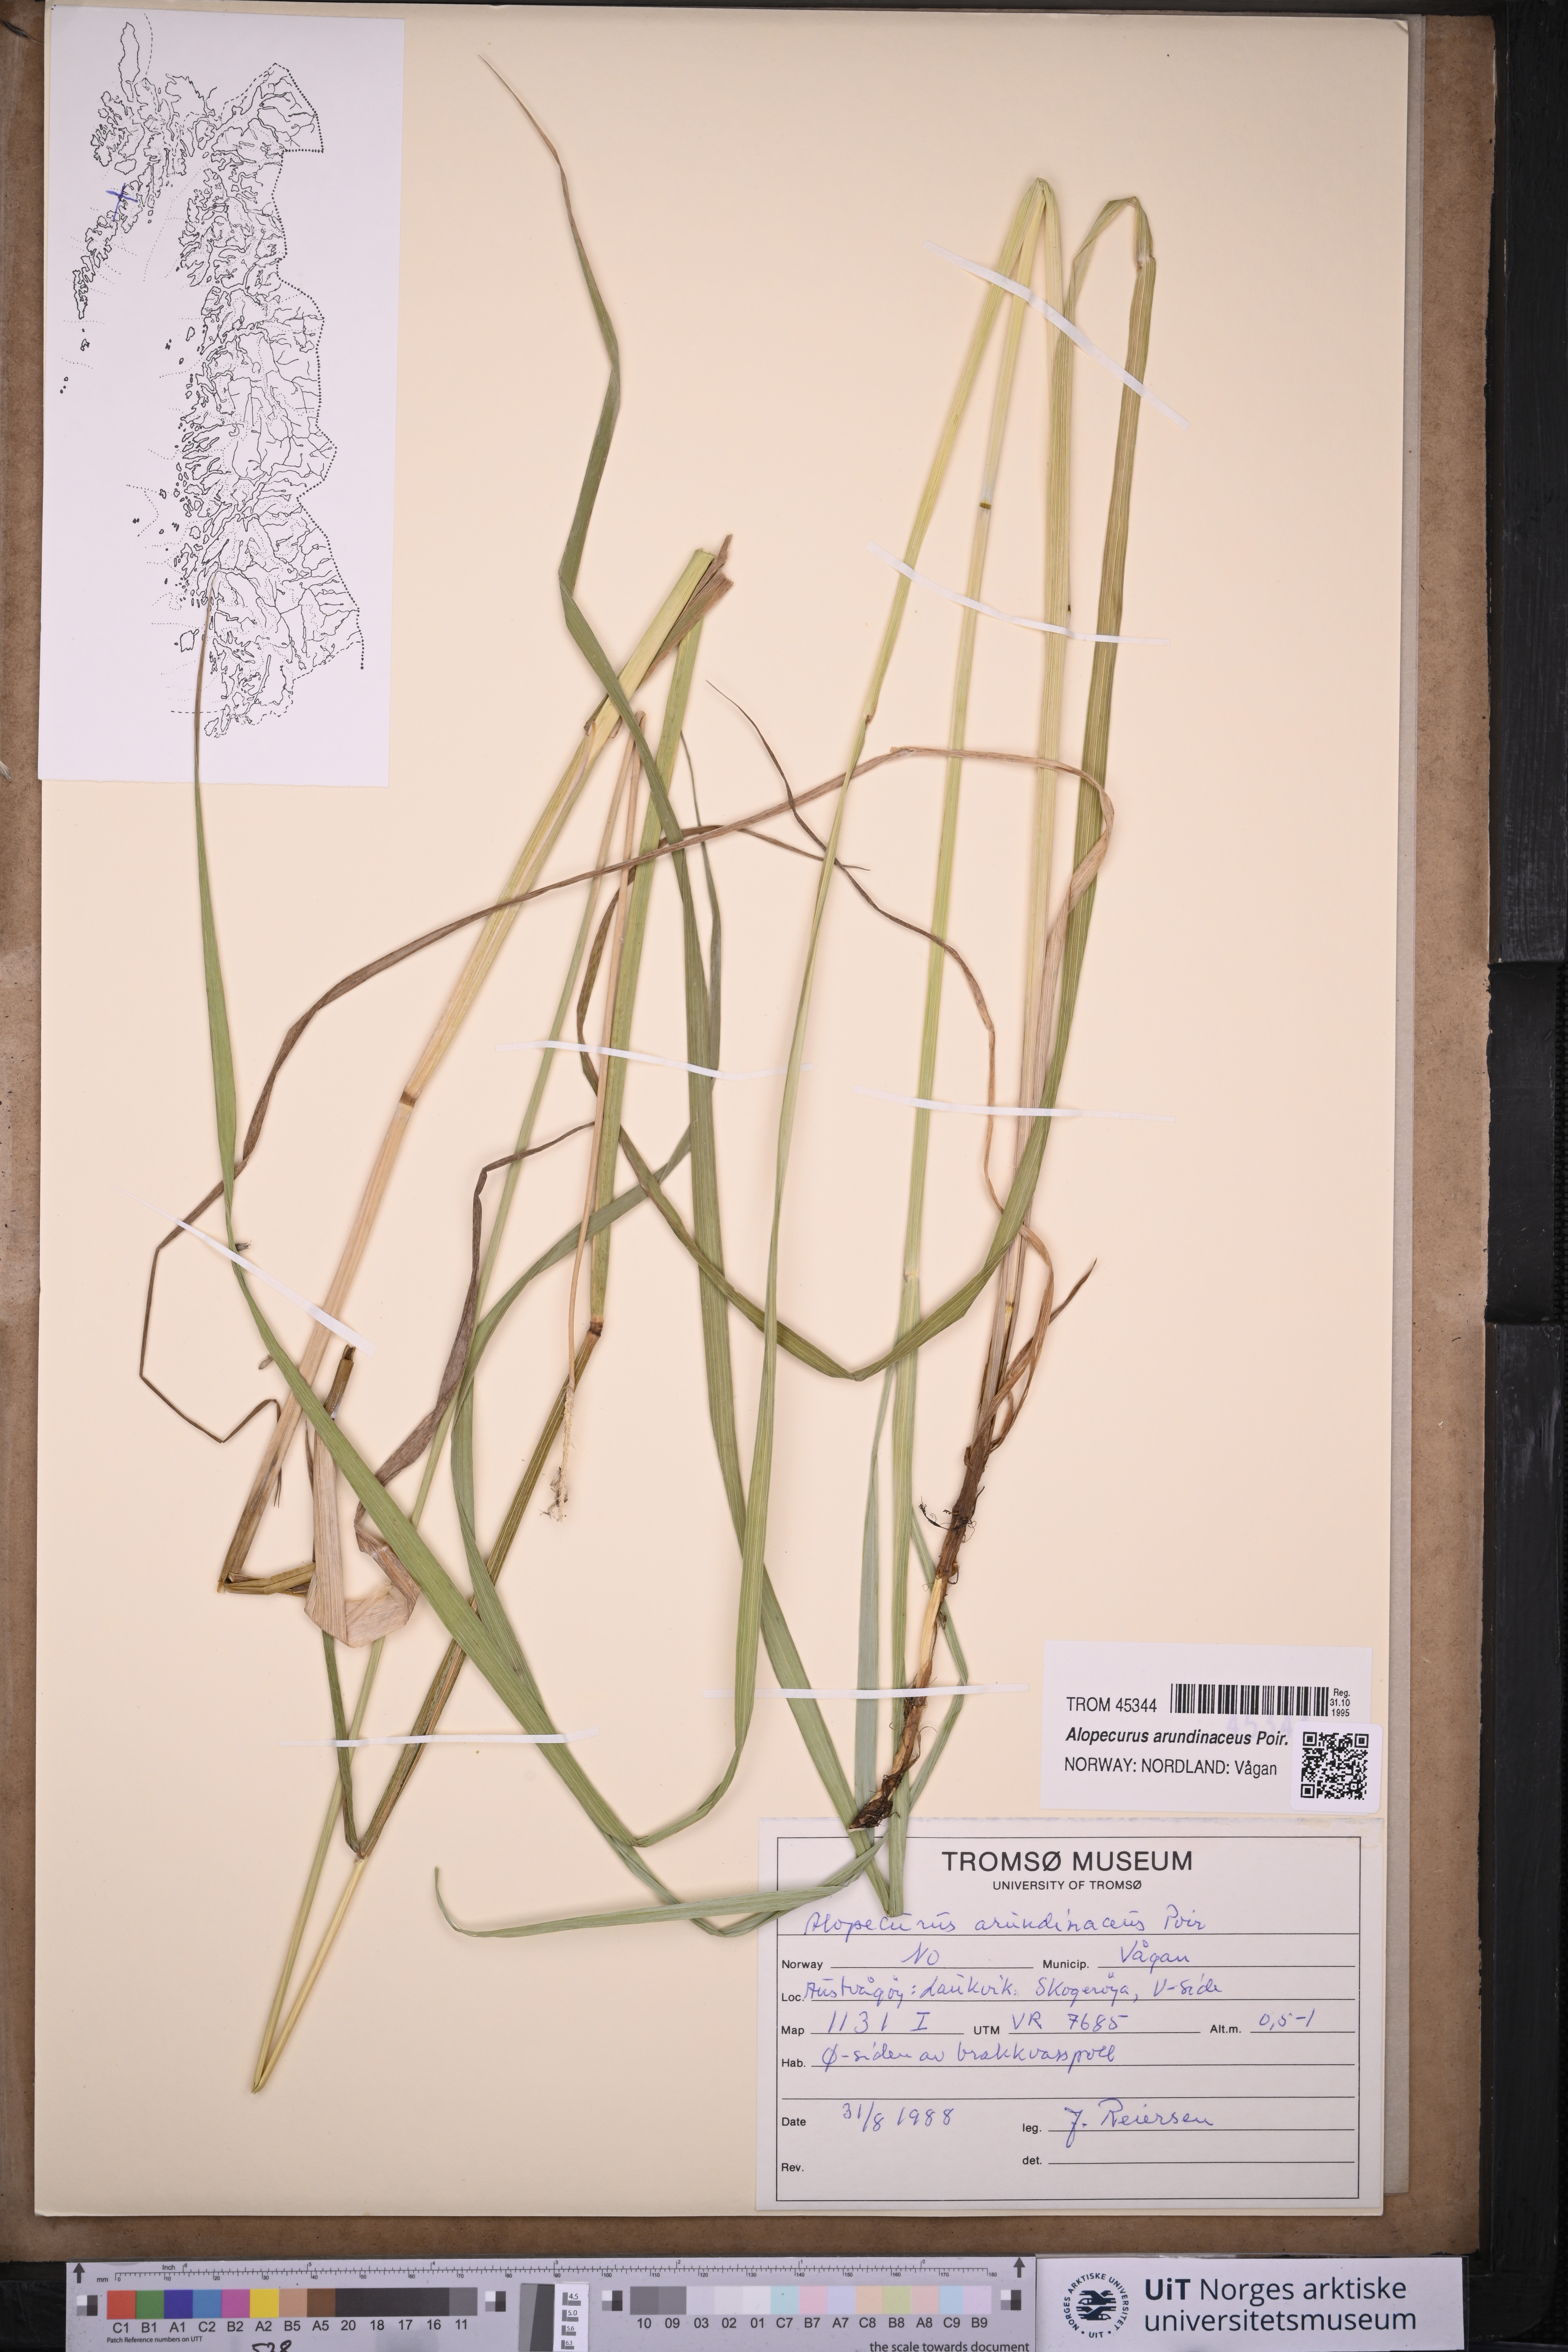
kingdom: Plantae
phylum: Tracheophyta
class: Liliopsida
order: Poales
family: Poaceae
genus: Alopecurus
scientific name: Alopecurus arundinaceus
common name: Creeping meadow foxtail
